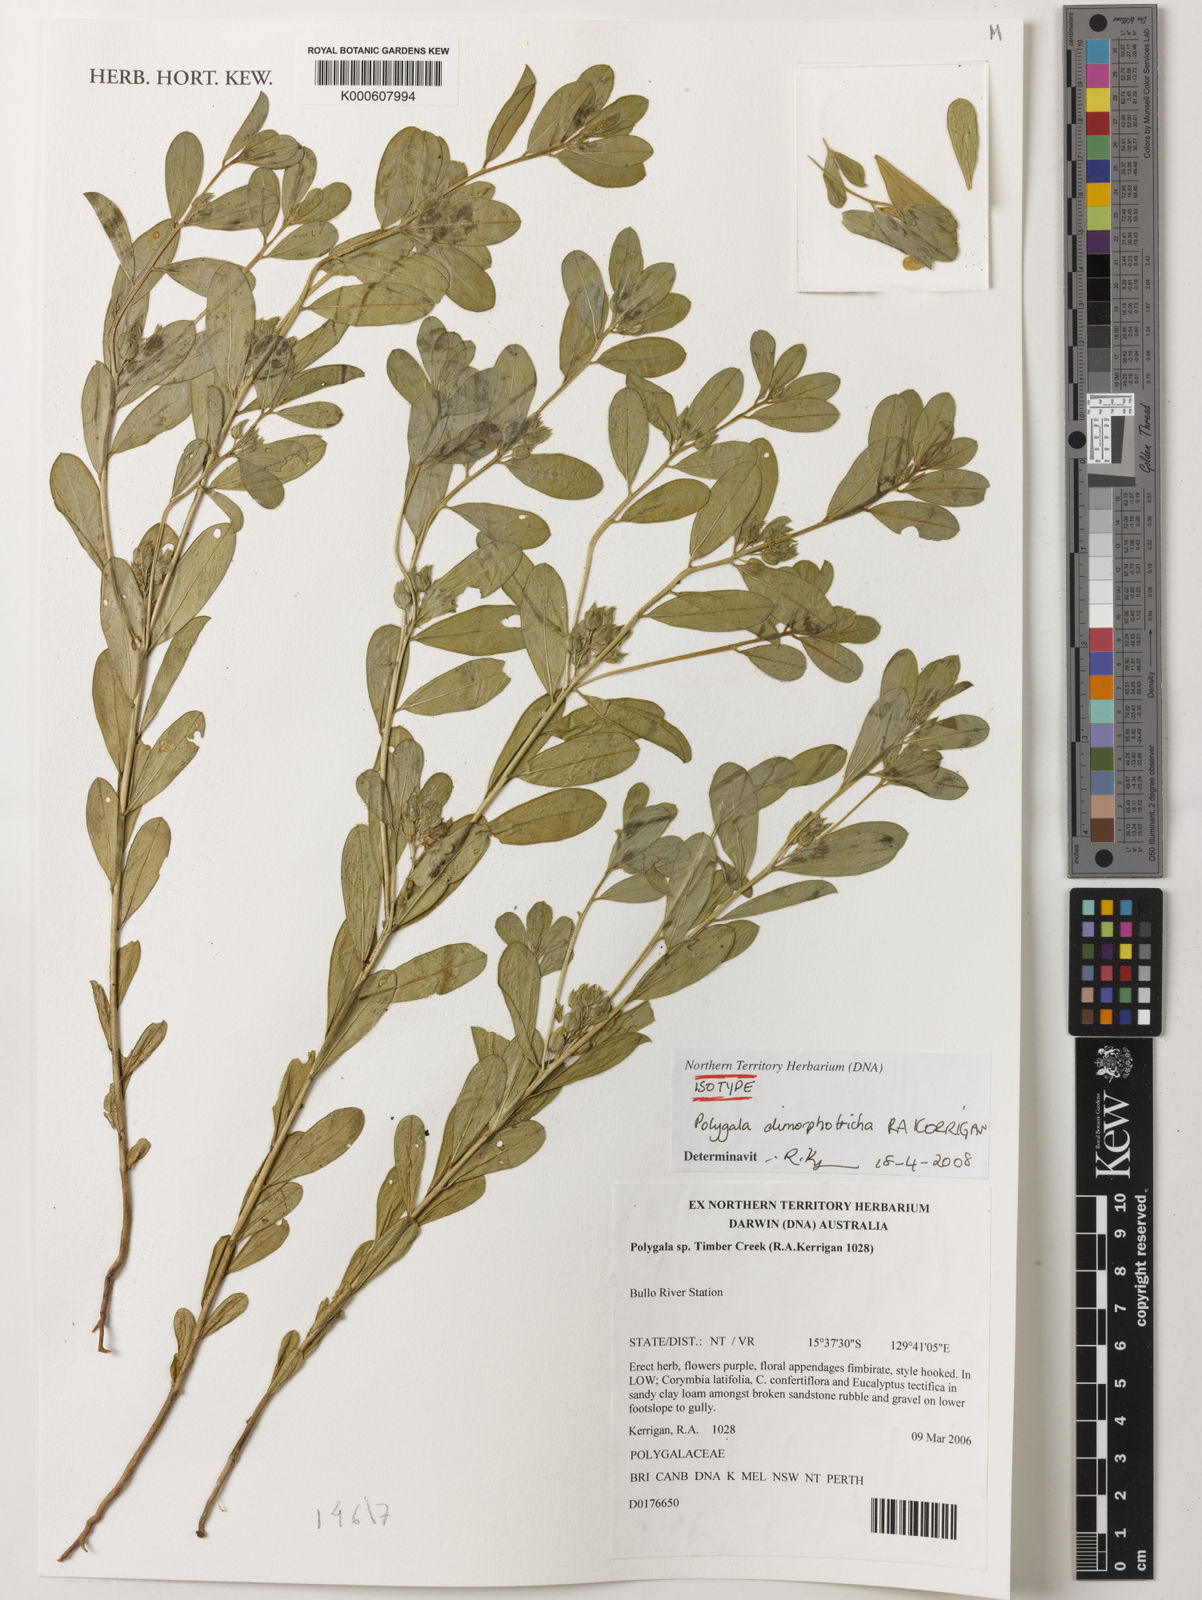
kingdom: Plantae
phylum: Tracheophyta
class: Magnoliopsida
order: Fabales
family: Polygalaceae
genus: Polygala
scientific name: Polygala dimorphotricha
